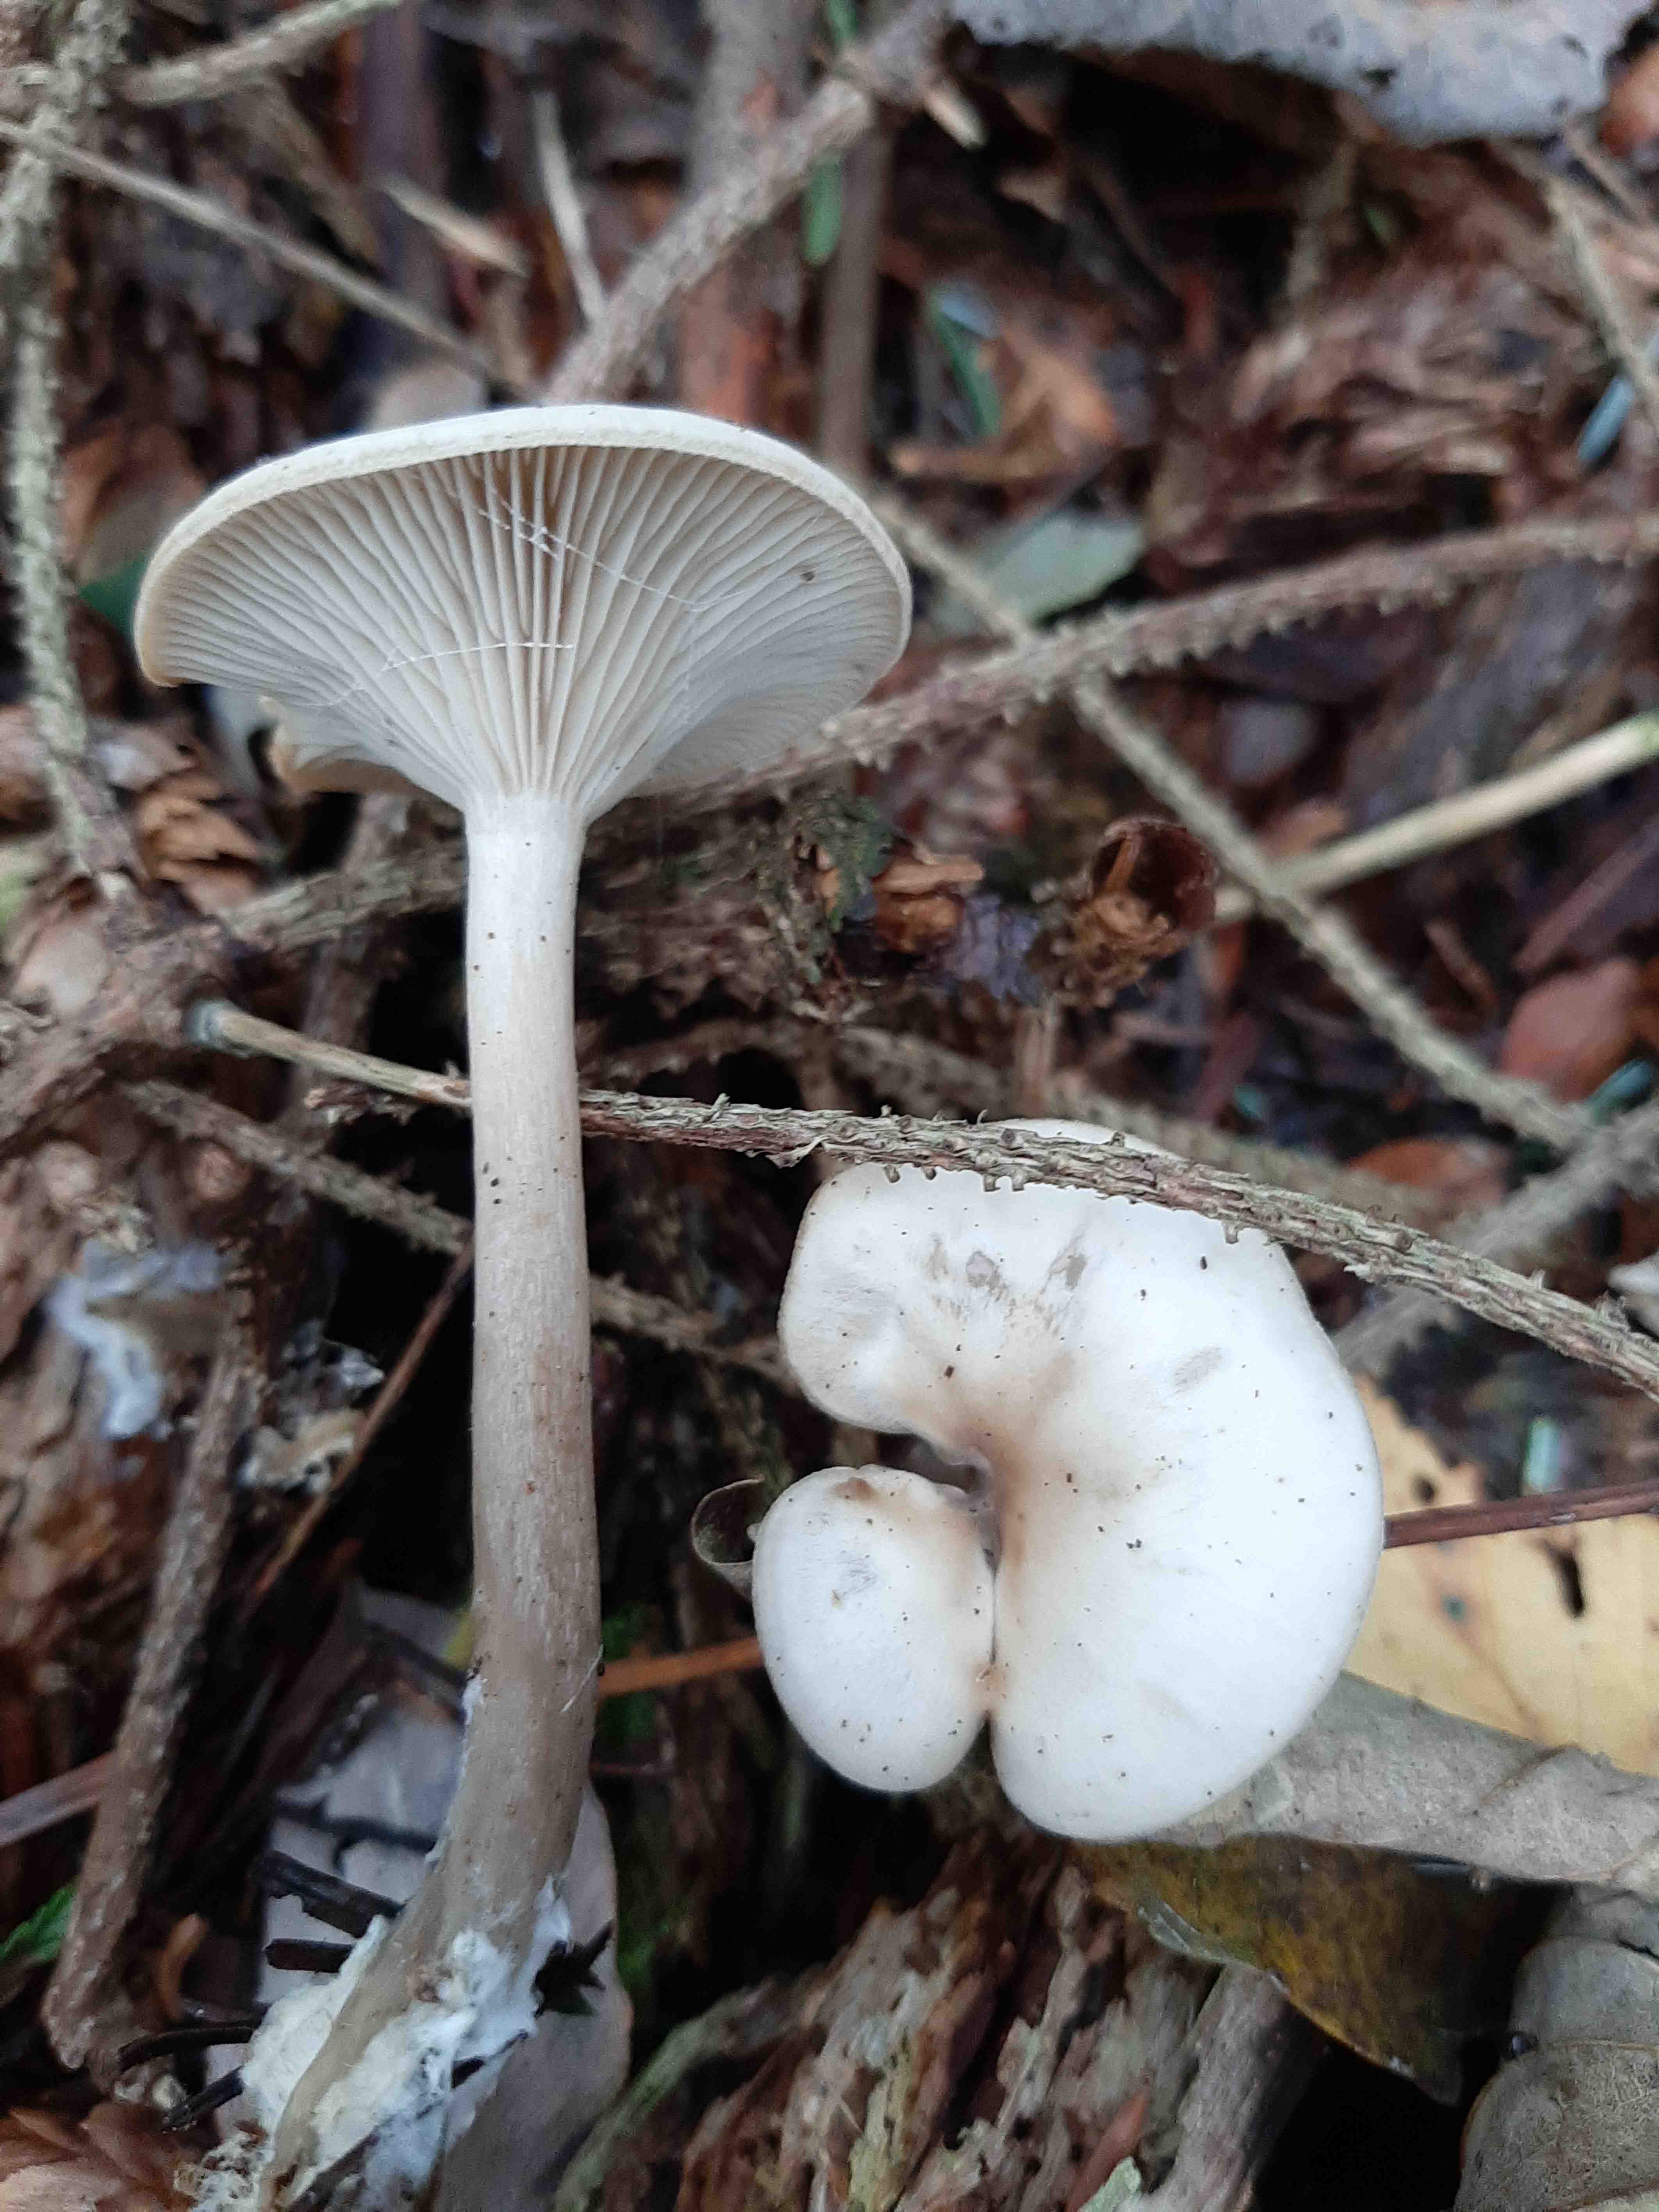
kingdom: Fungi
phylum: Basidiomycota
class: Agaricomycetes
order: Agaricales
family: Tricholomataceae
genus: Clitocybe
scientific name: Clitocybe
